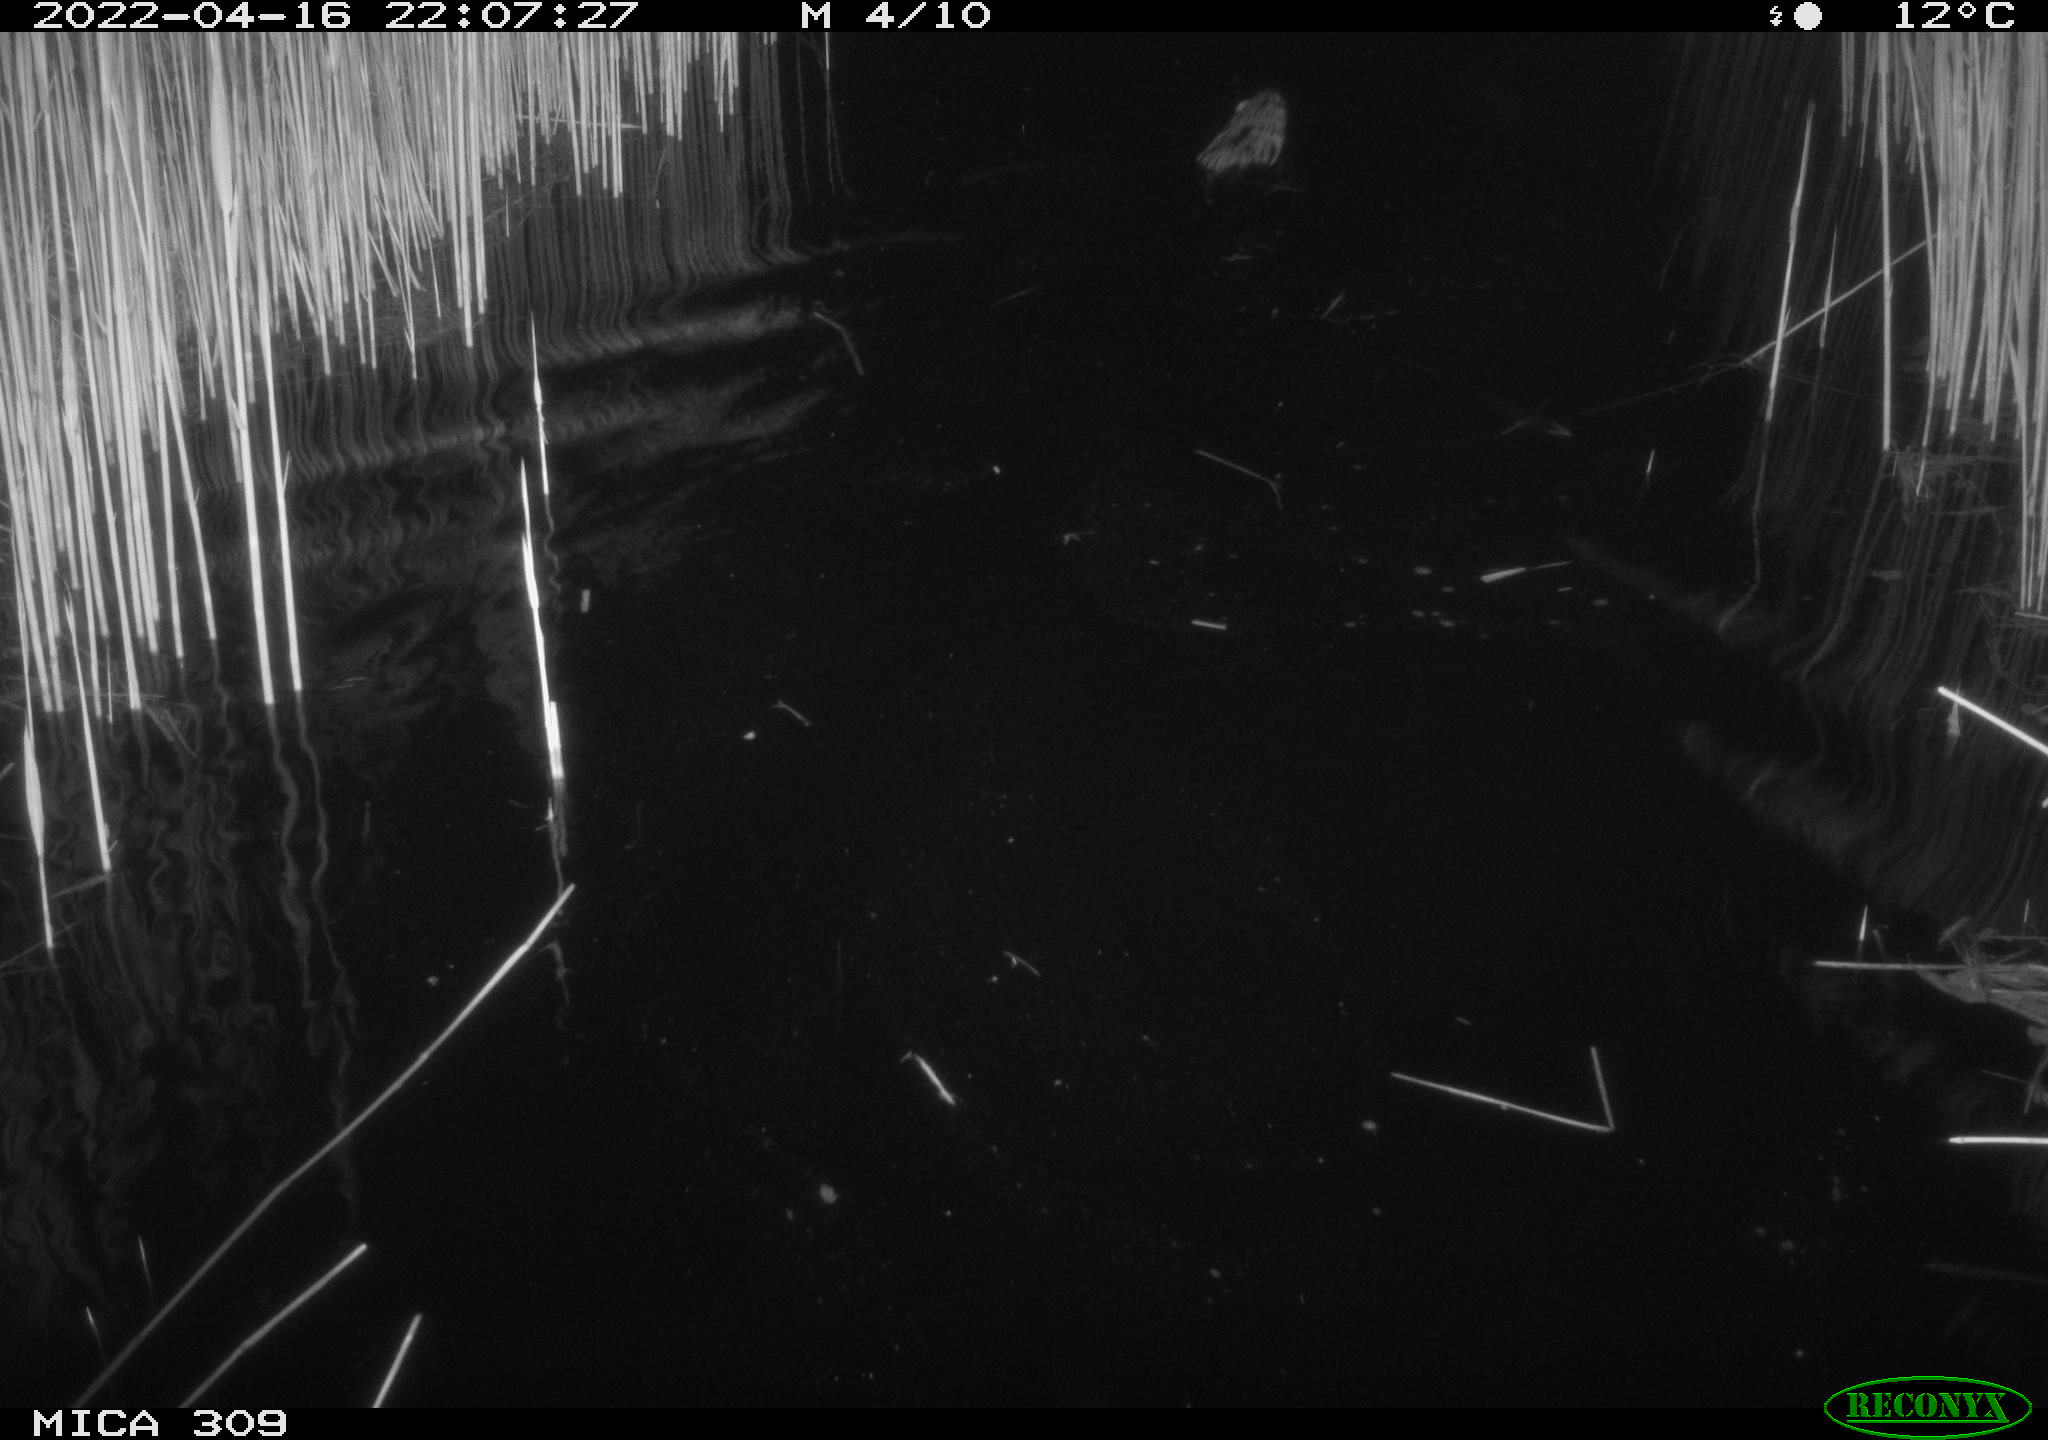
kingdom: Animalia
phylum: Chordata
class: Mammalia
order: Rodentia
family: Cricetidae
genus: Ondatra
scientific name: Ondatra zibethicus
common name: Muskrat
